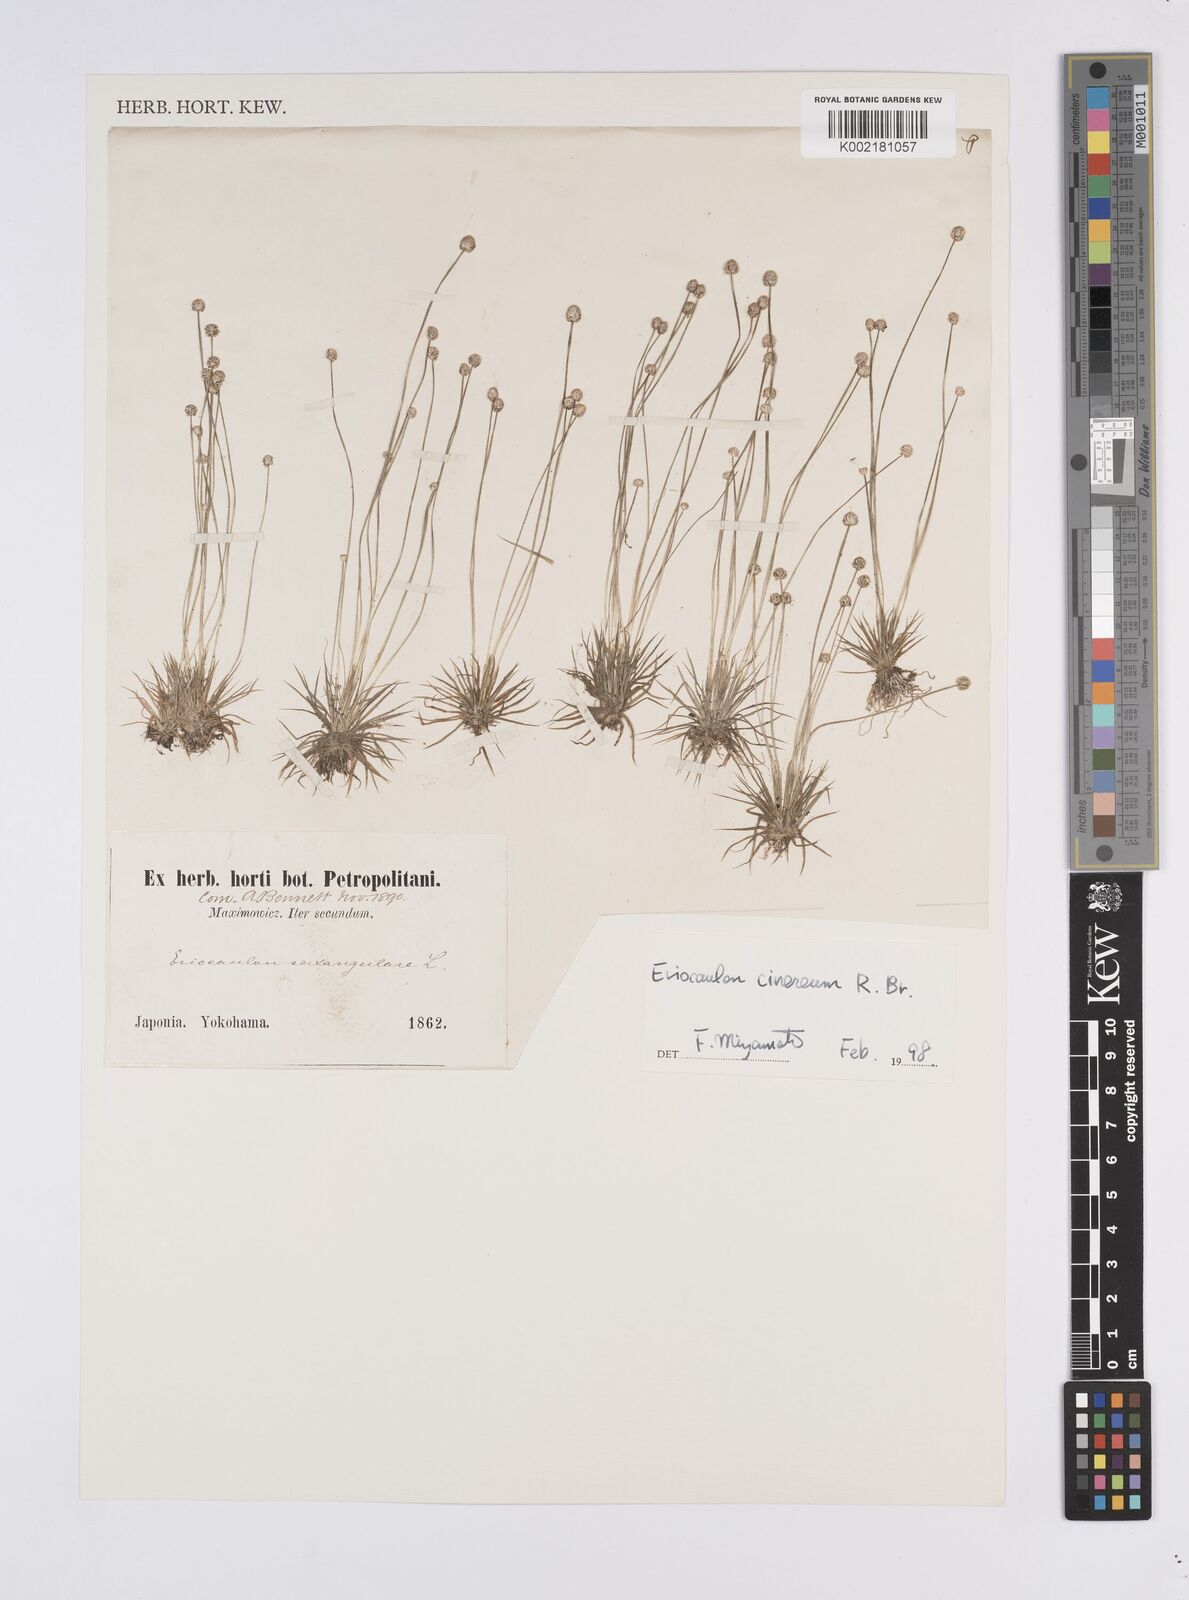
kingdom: Plantae
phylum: Tracheophyta
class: Liliopsida
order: Poales
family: Eriocaulaceae
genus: Eriocaulon
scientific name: Eriocaulon sexangulare
